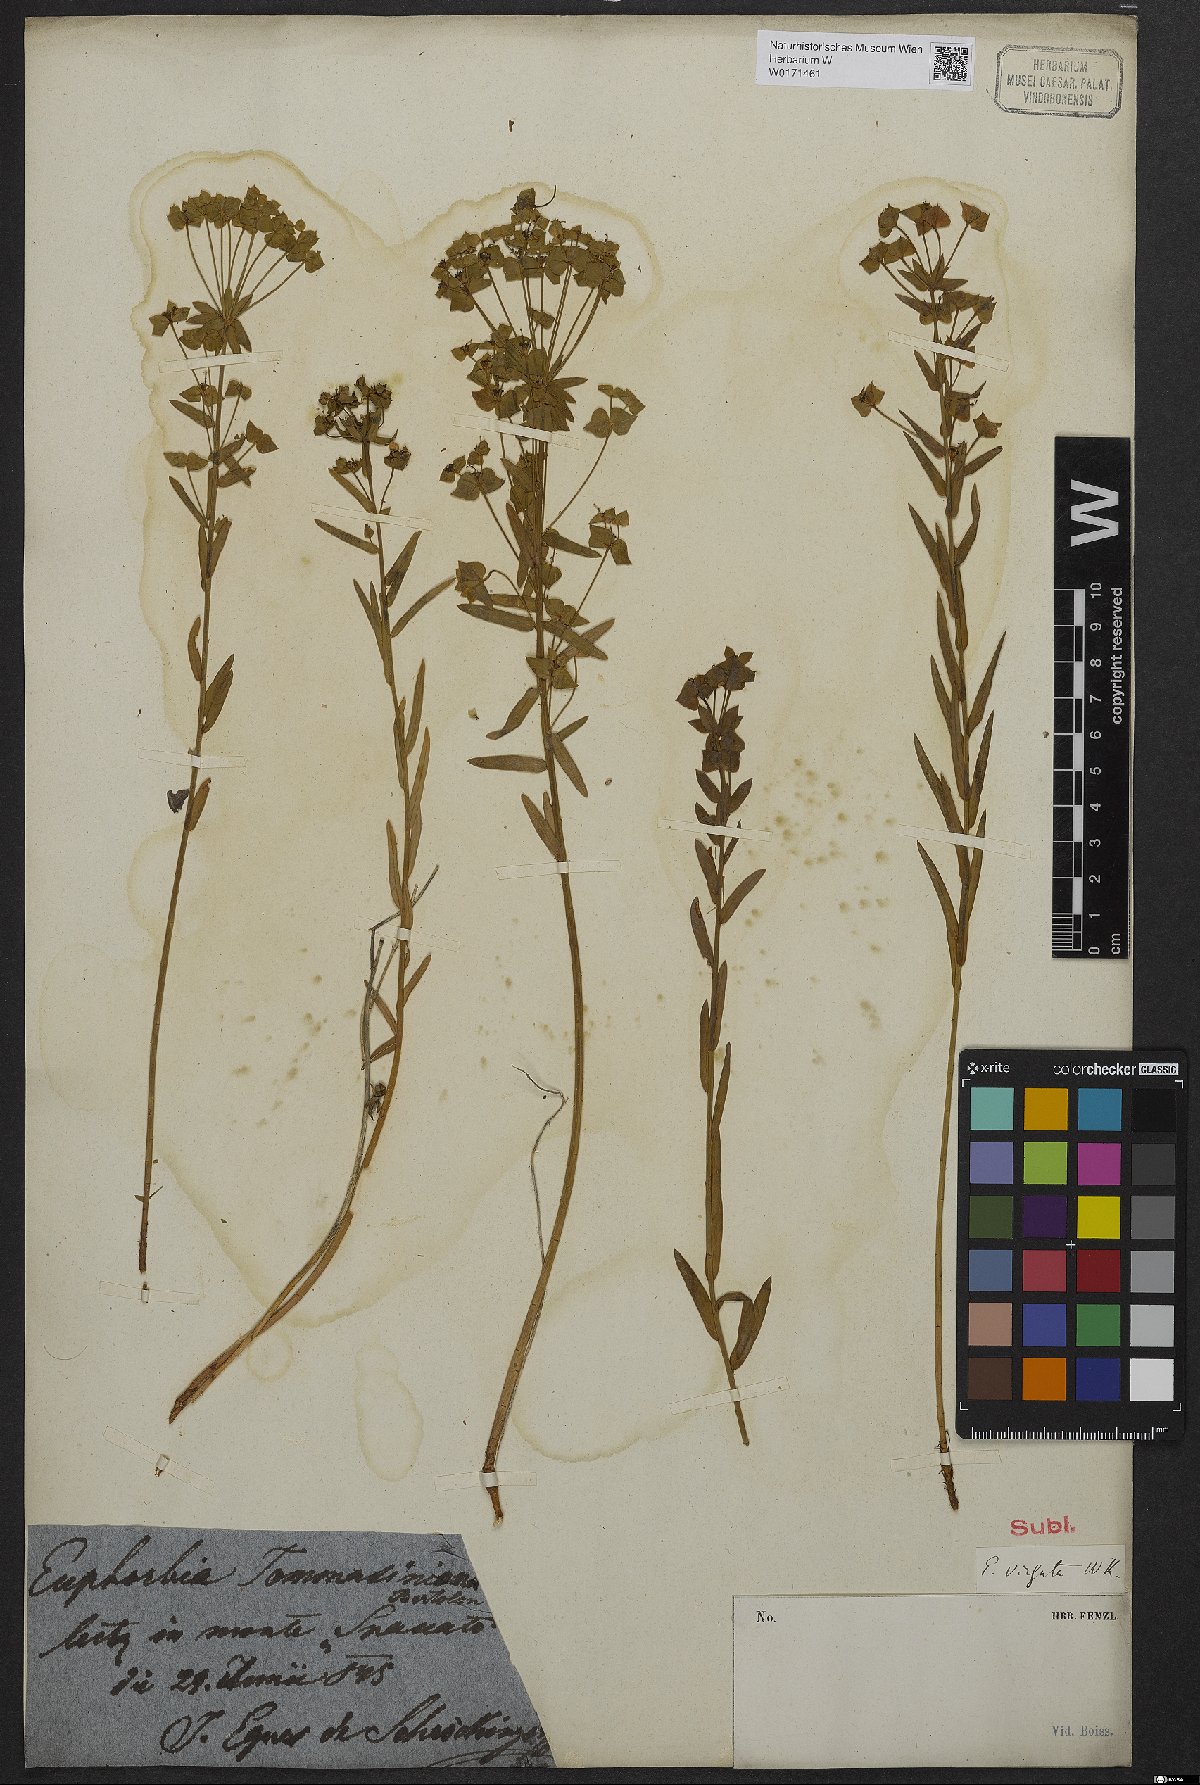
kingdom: Plantae
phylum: Tracheophyta
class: Magnoliopsida
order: Malpighiales
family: Euphorbiaceae
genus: Euphorbia
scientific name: Euphorbia tommasiniana
